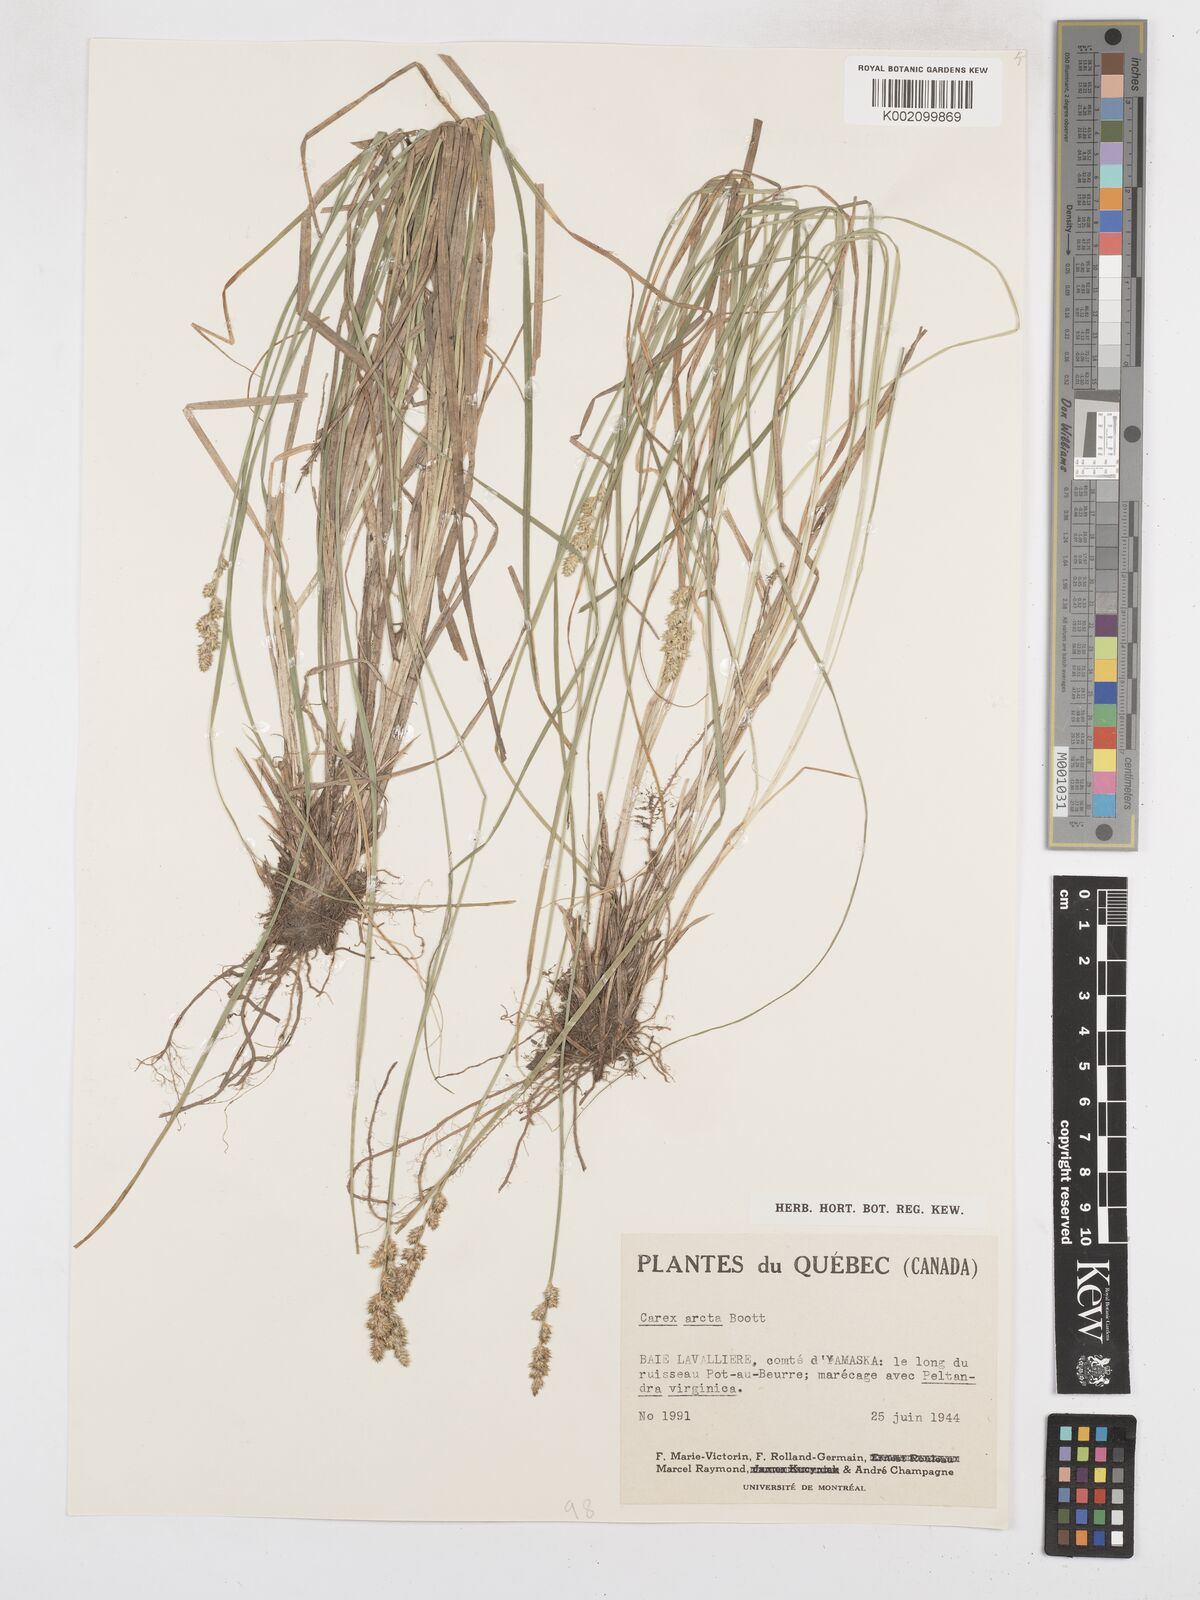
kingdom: Plantae
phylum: Tracheophyta
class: Liliopsida
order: Poales
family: Cyperaceae
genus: Carex
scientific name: Carex arcta
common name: Bear sedge
